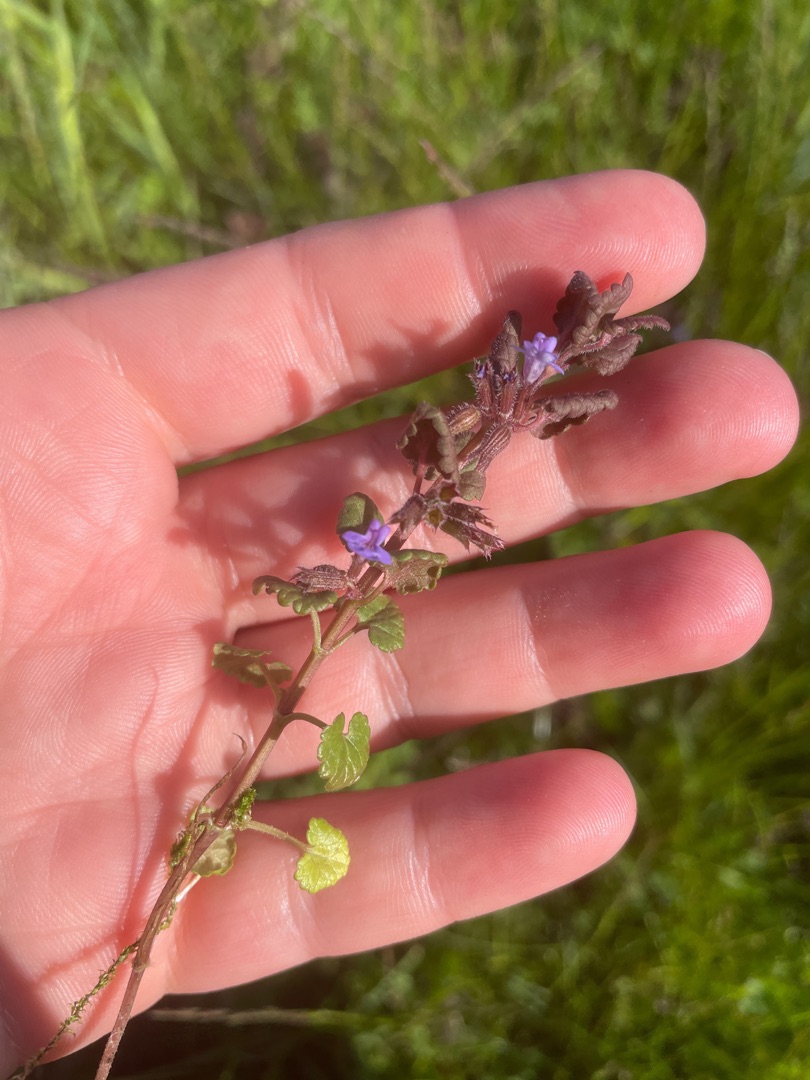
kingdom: Plantae
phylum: Tracheophyta
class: Magnoliopsida
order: Lamiales
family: Lamiaceae
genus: Glechoma
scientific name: Glechoma hederacea
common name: Korsknap
